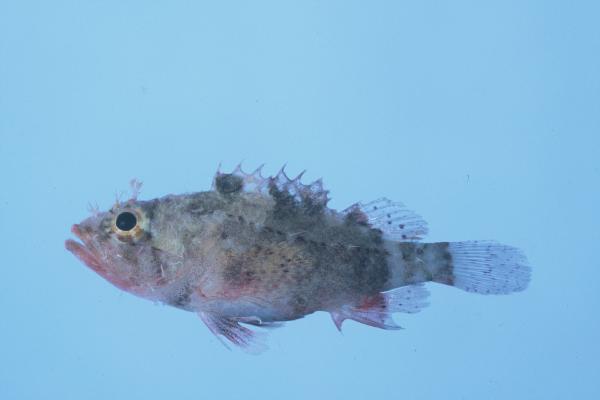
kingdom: Animalia
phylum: Chordata
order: Scorpaeniformes
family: Scorpaenidae
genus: Scorpaenodes
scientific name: Scorpaenodes hirsutus
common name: Hairy scorpionfish
